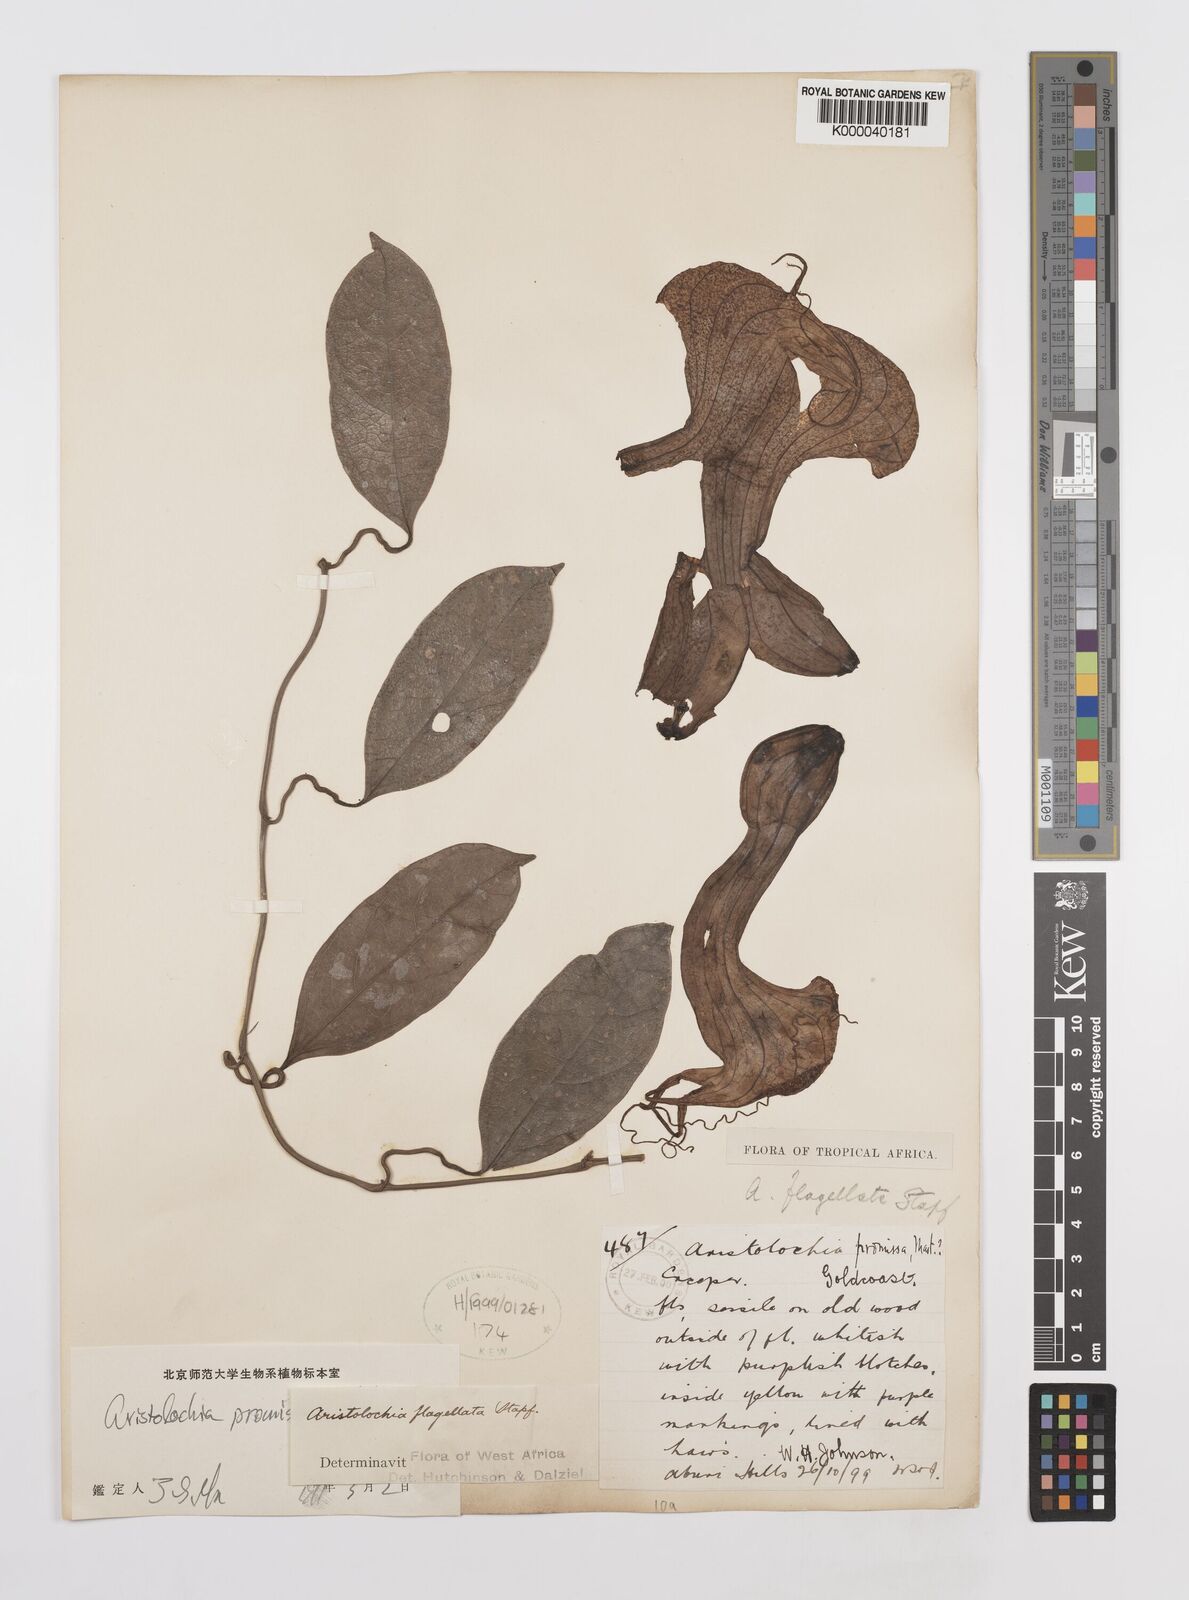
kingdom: Plantae
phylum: Tracheophyta
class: Magnoliopsida
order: Piperales
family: Aristolochiaceae
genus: Aristolochia
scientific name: Aristolochia promissa
